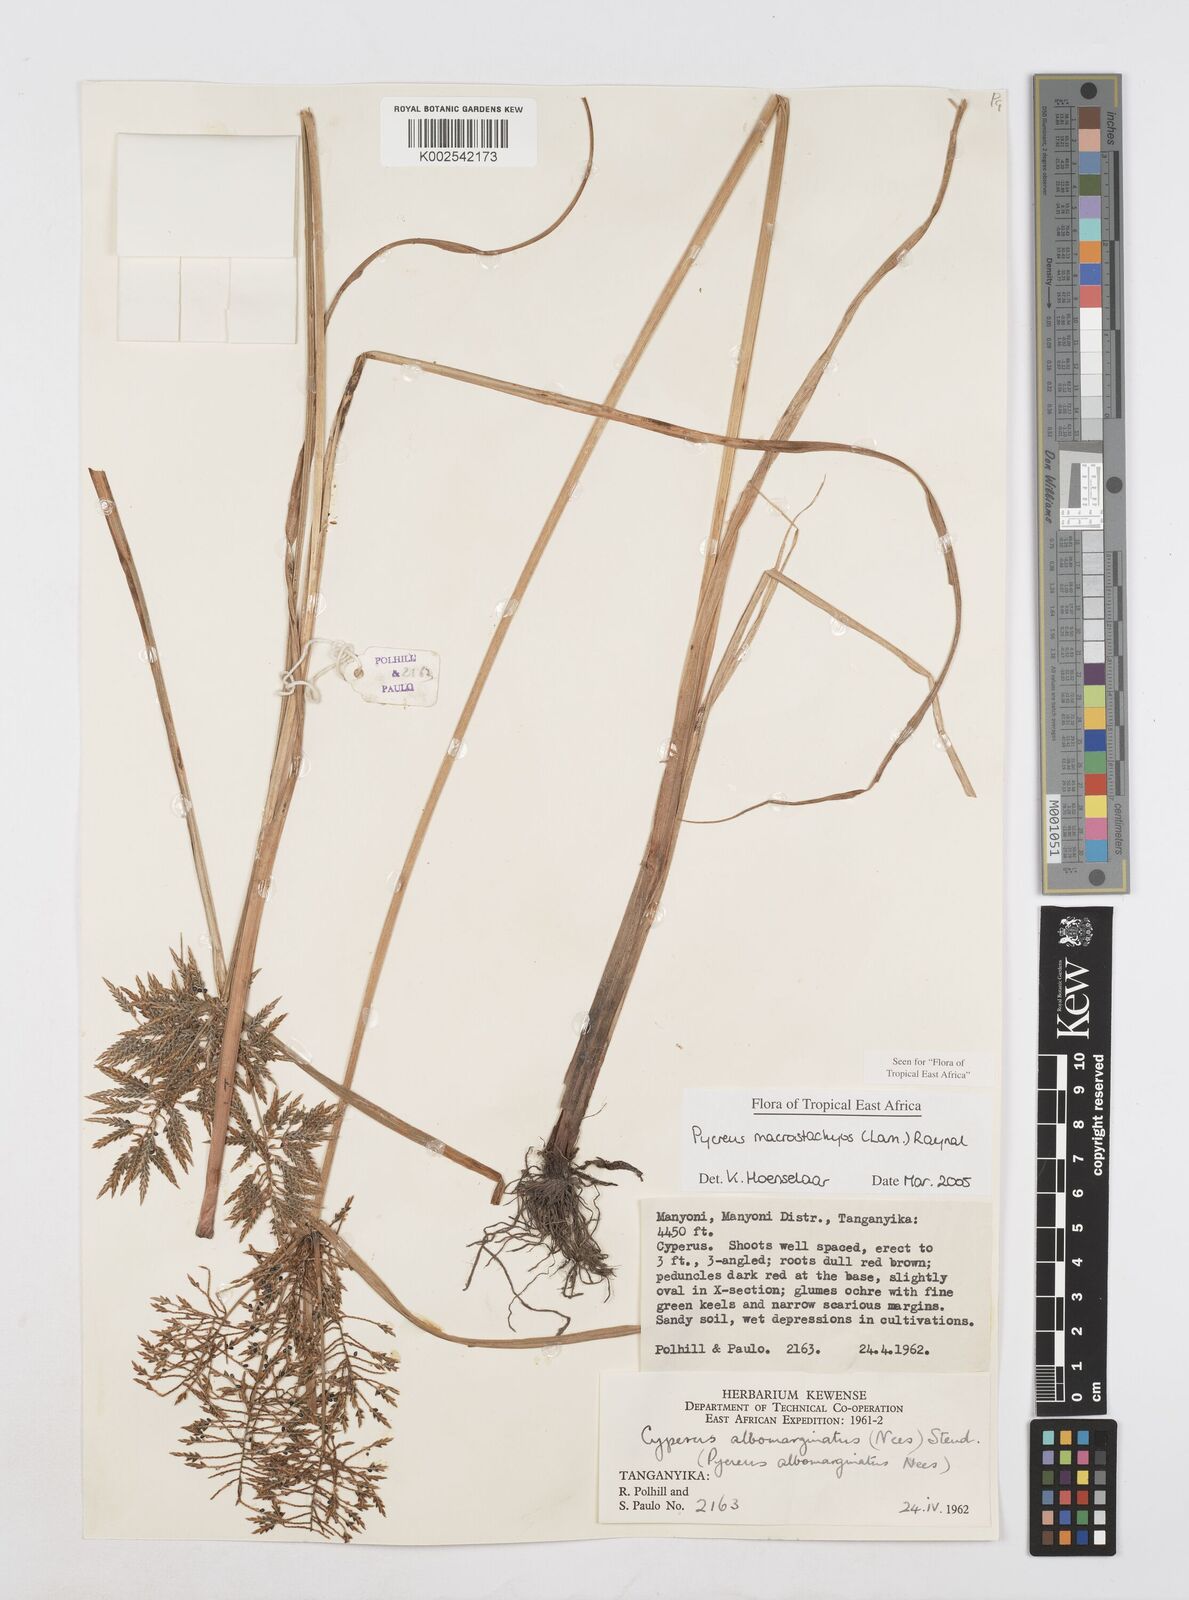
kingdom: Plantae
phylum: Tracheophyta
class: Liliopsida
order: Poales
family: Cyperaceae
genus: Cyperus
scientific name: Cyperus macrostachyos
